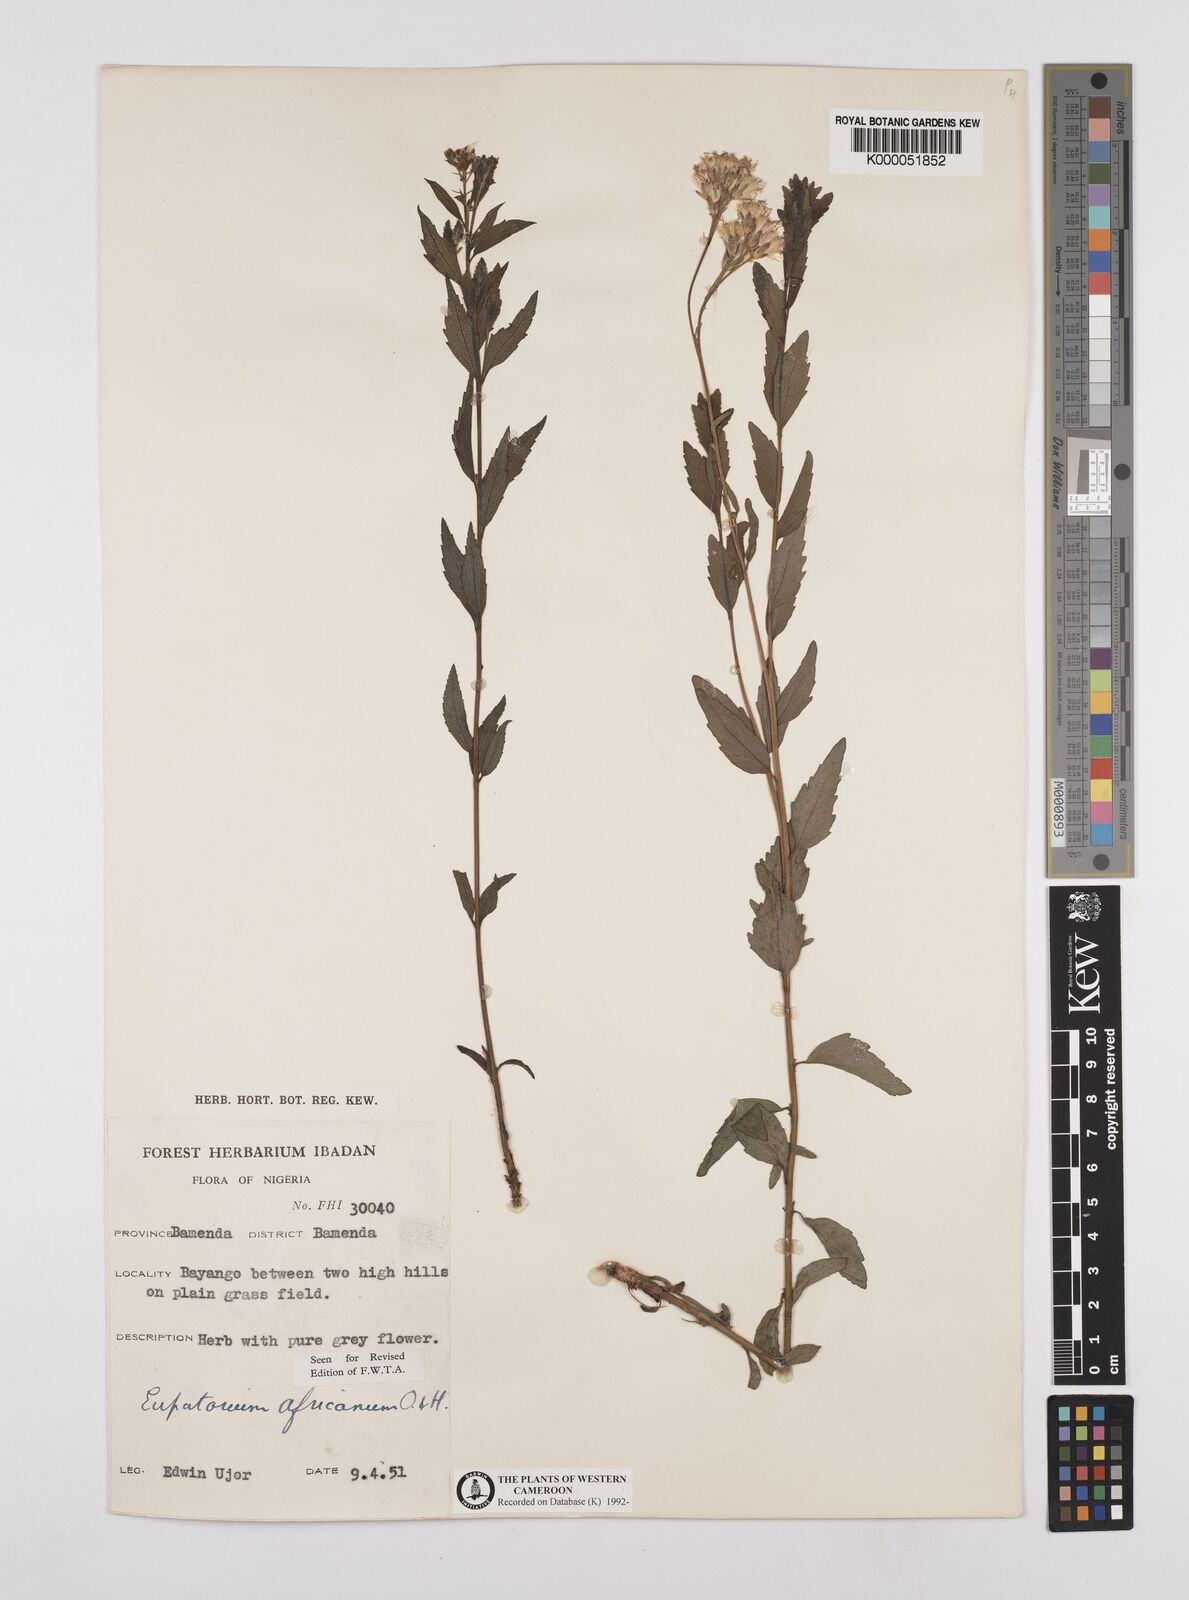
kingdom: Plantae
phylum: Tracheophyta
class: Magnoliopsida
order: Asterales
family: Asteraceae
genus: Stomatanthes
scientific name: Stomatanthes africanus
